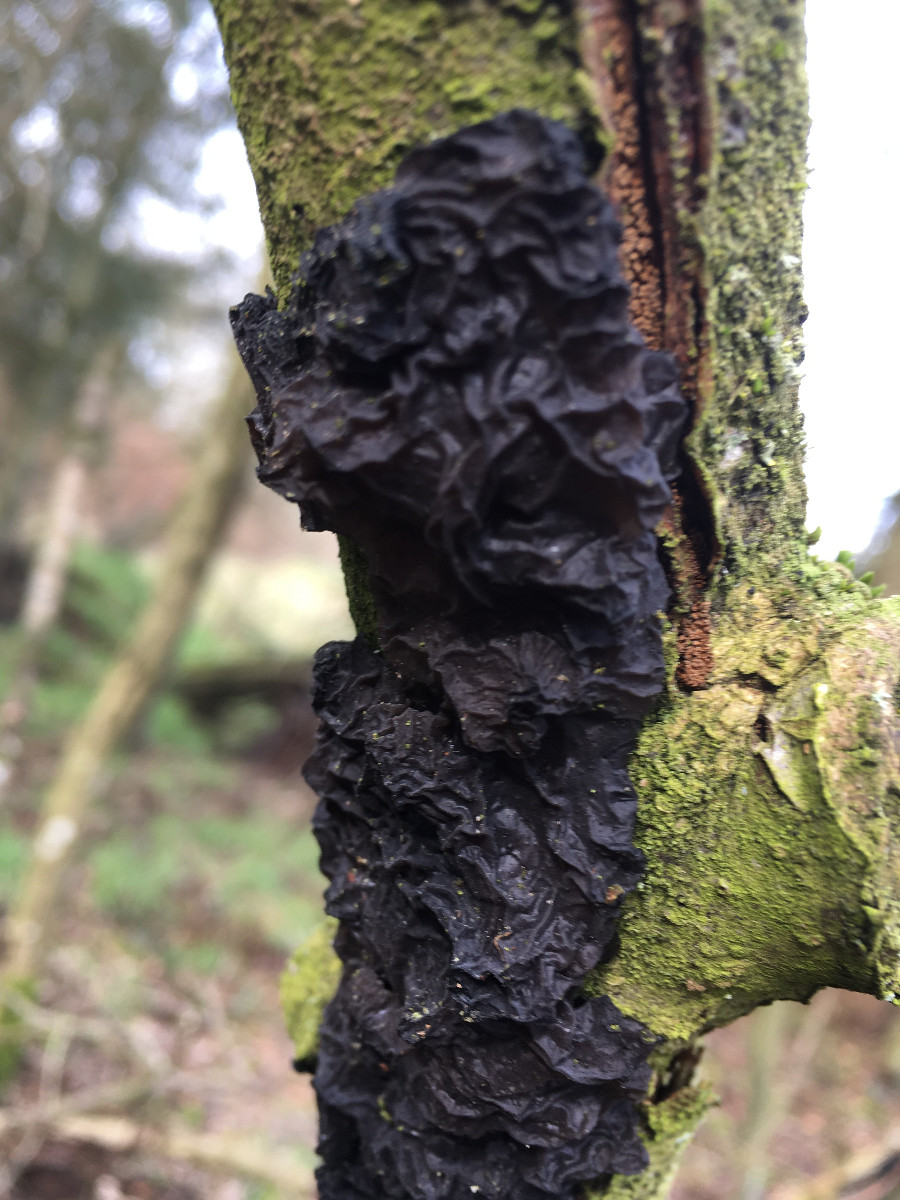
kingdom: Fungi
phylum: Basidiomycota
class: Agaricomycetes
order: Auriculariales
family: Auriculariaceae
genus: Exidia
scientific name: Exidia nigricans
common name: almindelig bævretop
